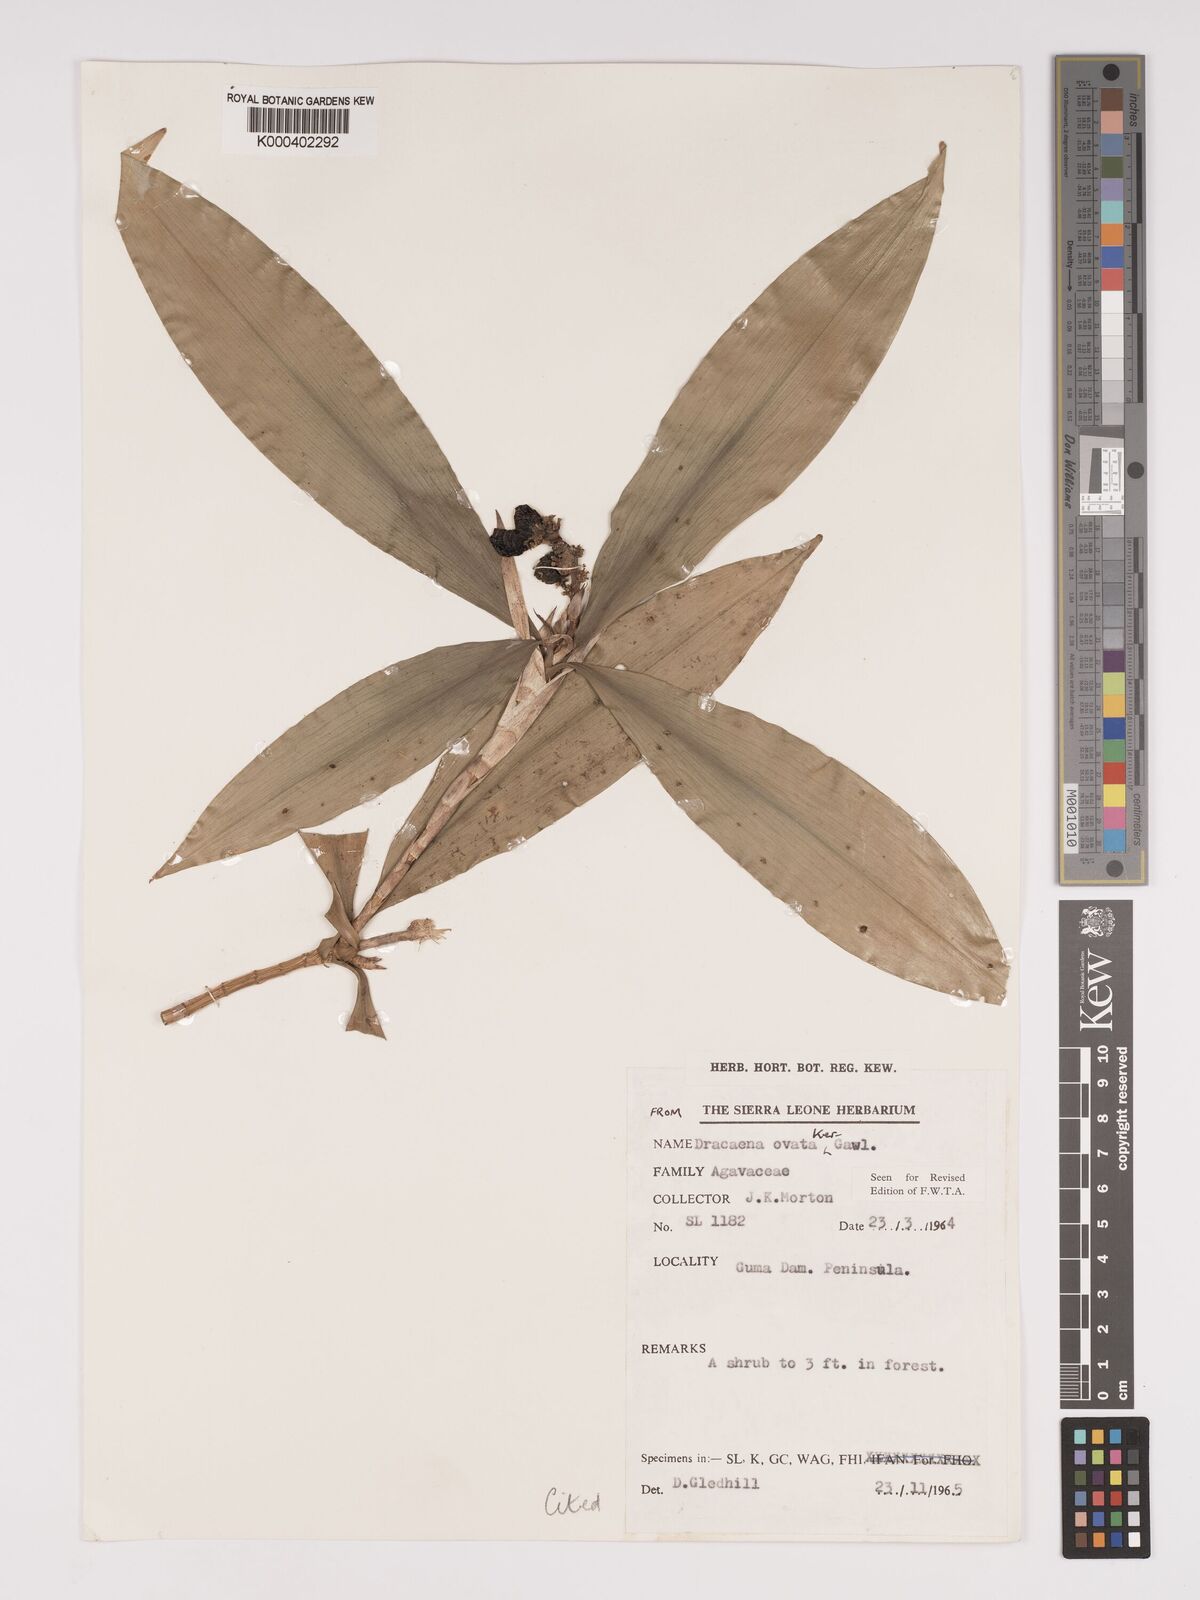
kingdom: Plantae
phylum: Tracheophyta
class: Liliopsida
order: Asparagales
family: Asparagaceae
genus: Dracaena
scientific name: Dracaena ovata
